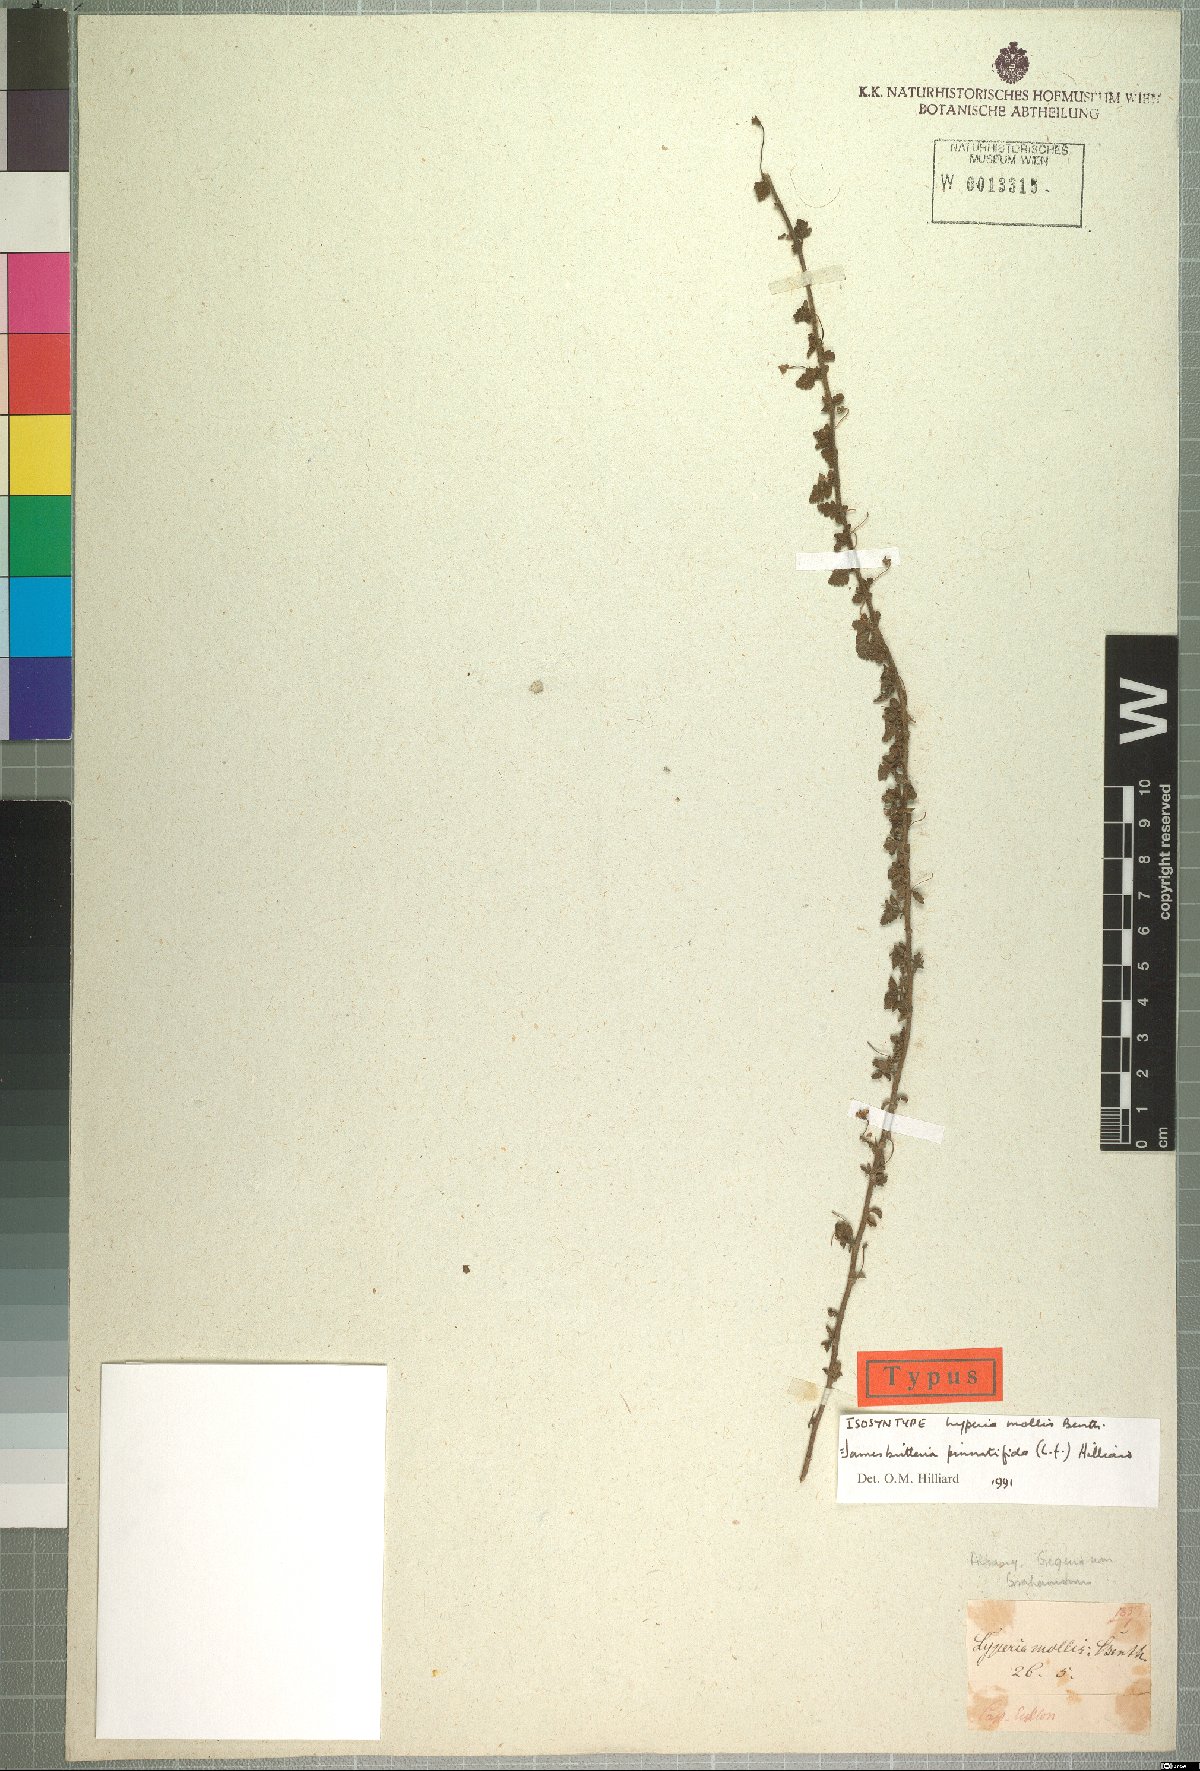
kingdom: Plantae
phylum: Tracheophyta
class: Magnoliopsida
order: Lamiales
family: Scrophulariaceae
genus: Jamesbrittenia
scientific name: Jamesbrittenia pinnatifida
